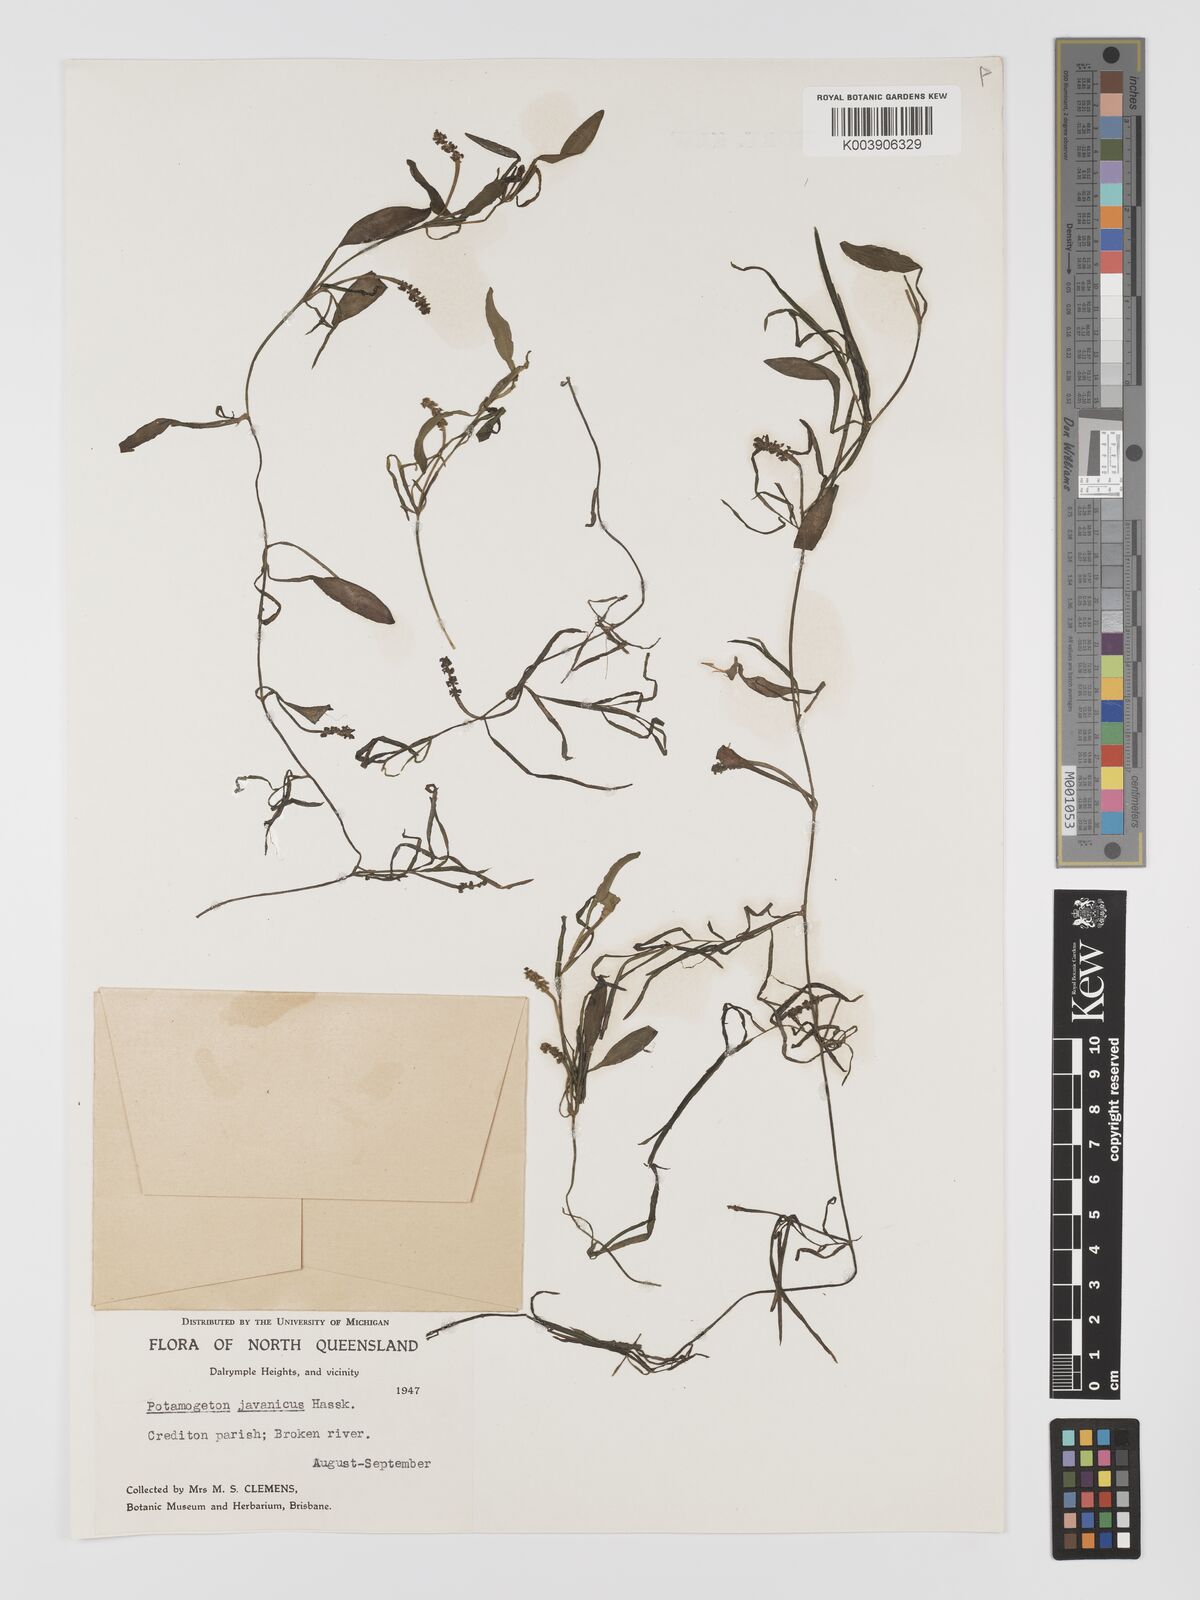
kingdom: Plantae
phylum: Tracheophyta
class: Liliopsida
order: Alismatales
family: Potamogetonaceae
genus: Potamogeton
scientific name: Potamogeton ochreatus
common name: Blunt pondweed
